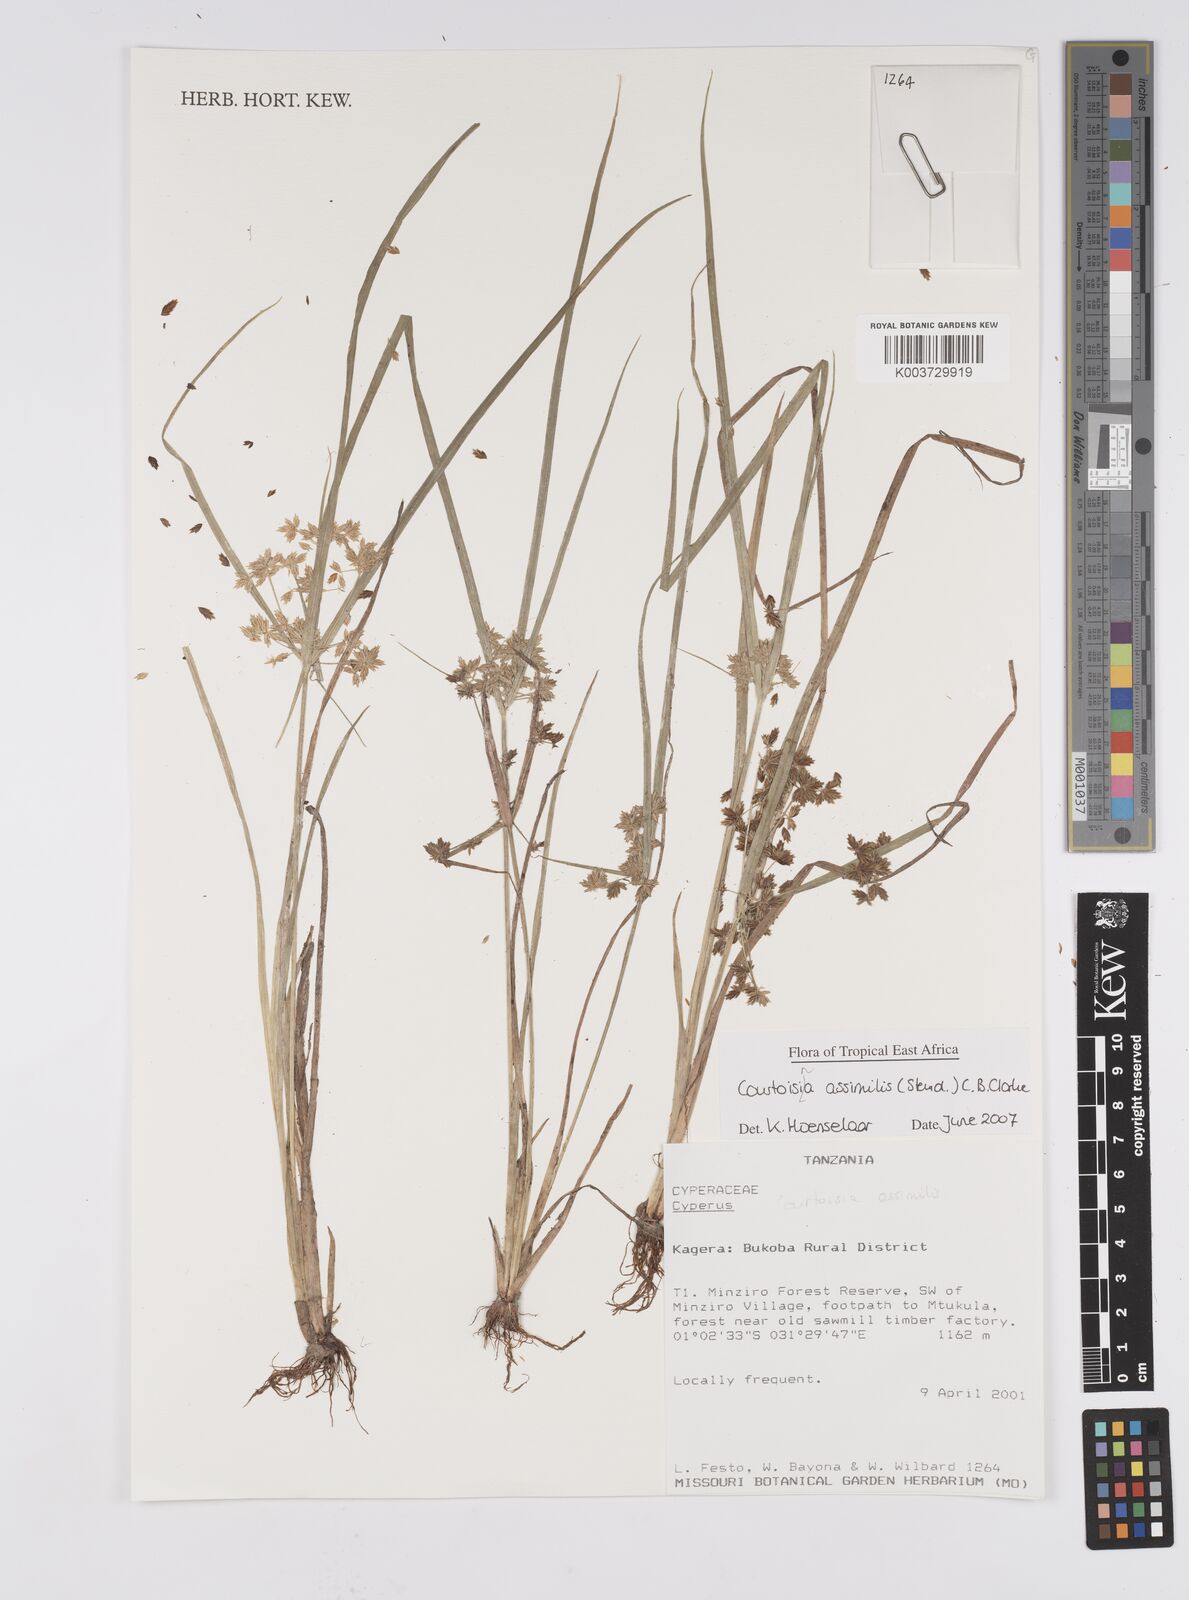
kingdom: Plantae
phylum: Tracheophyta
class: Liliopsida
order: Poales
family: Cyperaceae
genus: Cyperus
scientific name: Cyperus assimilis
